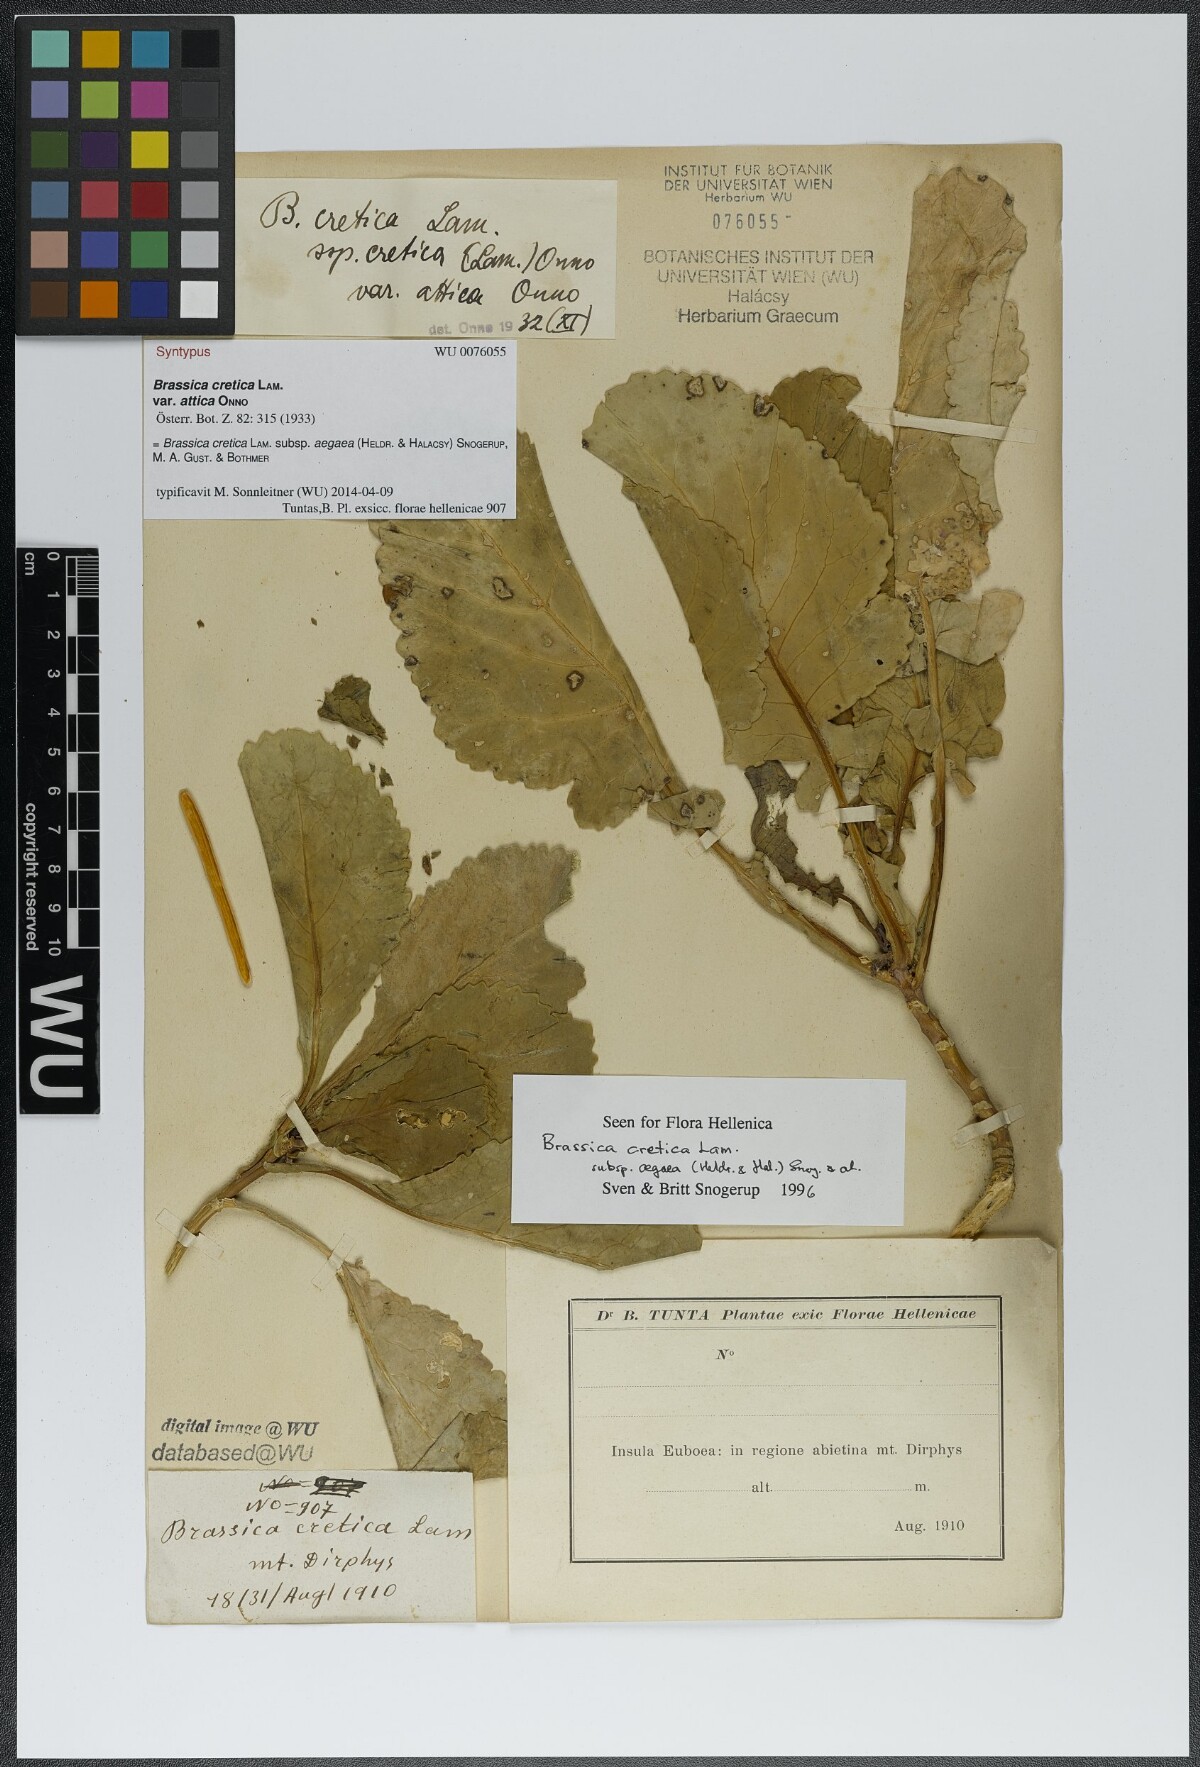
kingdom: Plantae
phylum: Tracheophyta
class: Magnoliopsida
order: Brassicales
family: Brassicaceae
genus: Brassica
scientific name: Brassica cretica
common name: Mustard
